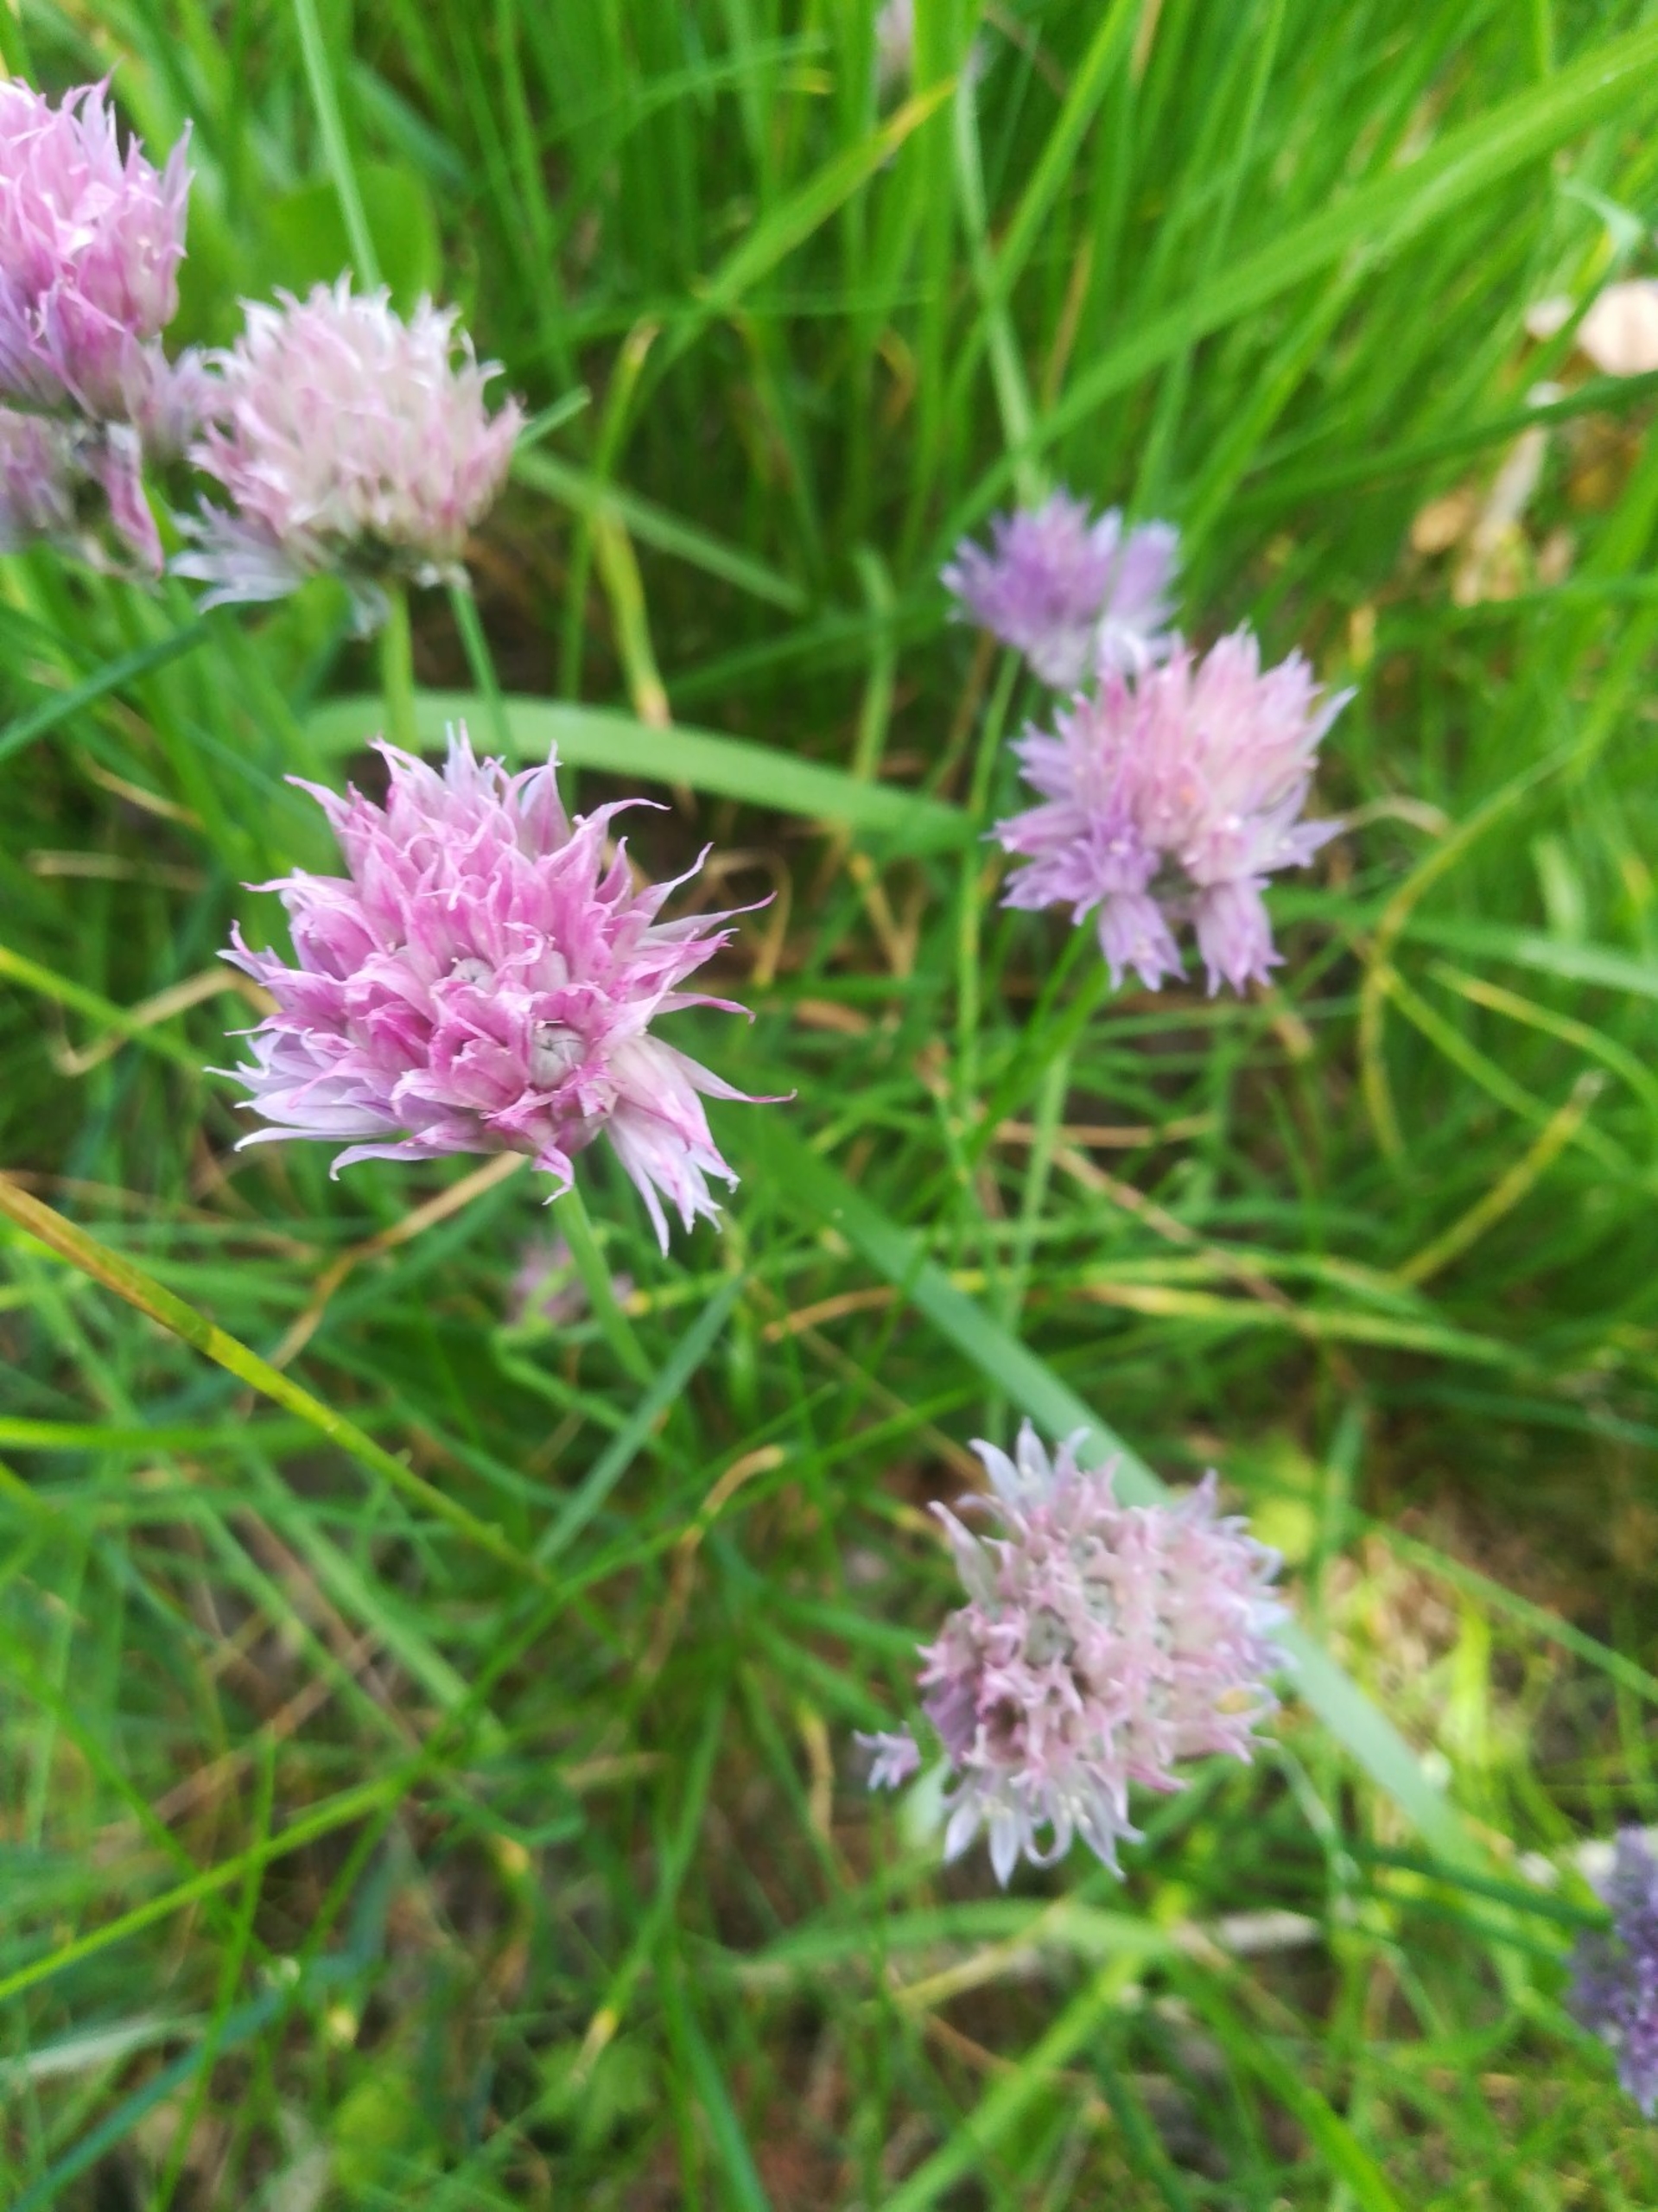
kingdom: Plantae
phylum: Tracheophyta
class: Liliopsida
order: Asparagales
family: Amaryllidaceae
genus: Allium
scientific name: Allium schoenoprasum
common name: Pur-løg
